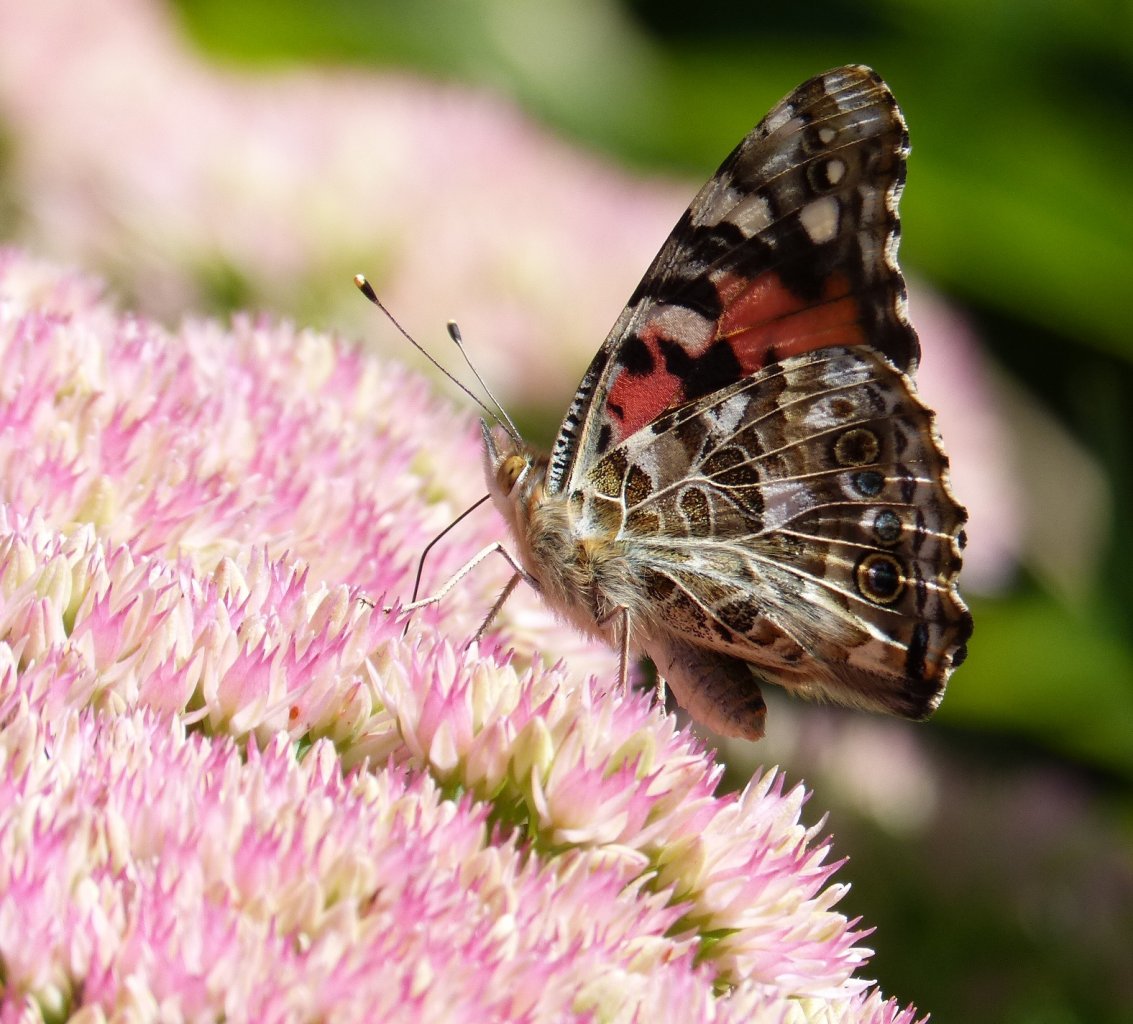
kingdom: Animalia
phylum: Arthropoda
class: Insecta
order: Lepidoptera
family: Nymphalidae
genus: Vanessa
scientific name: Vanessa cardui
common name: Painted Lady
